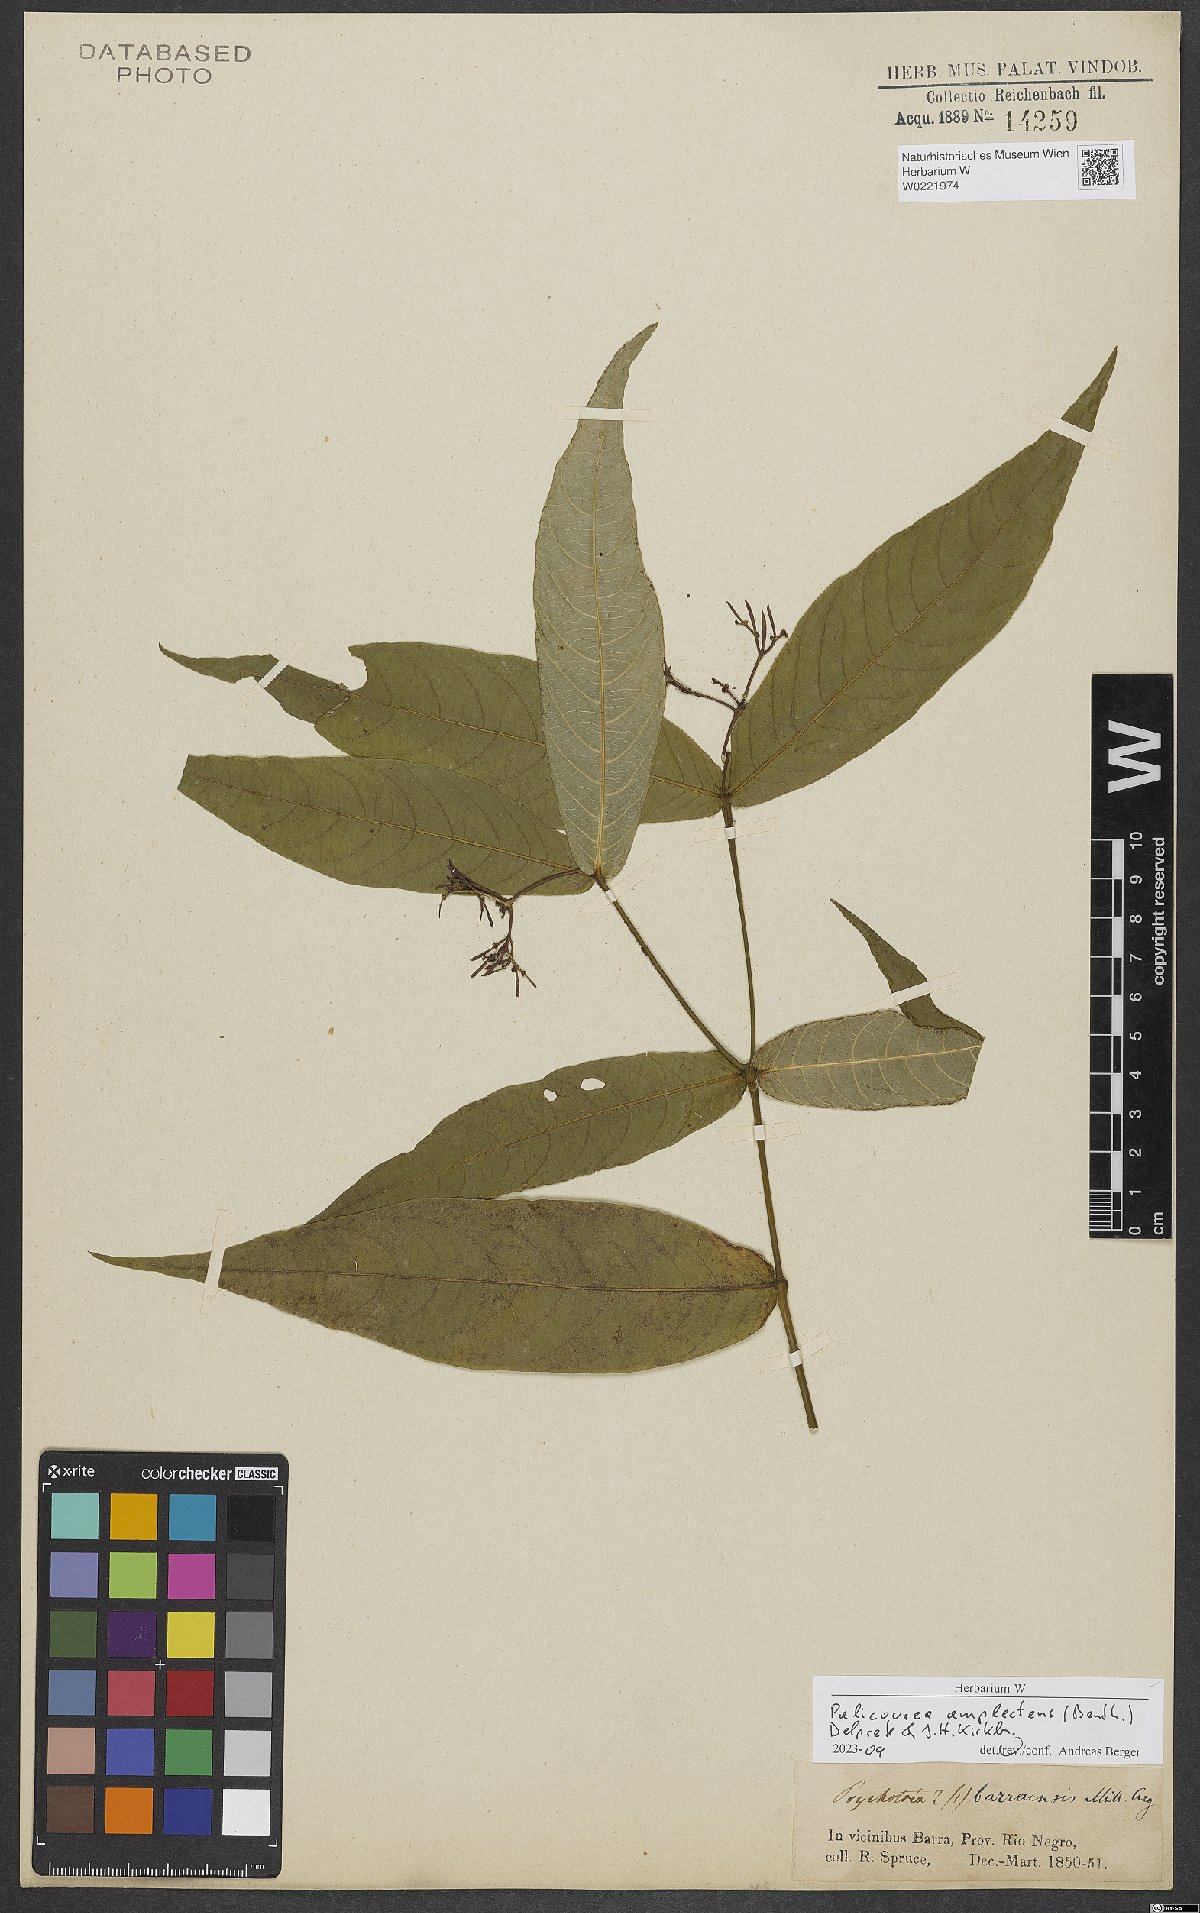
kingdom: Plantae
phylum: Tracheophyta
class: Magnoliopsida
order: Gentianales
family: Rubiaceae
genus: Palicourea
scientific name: Palicourea amplectens
